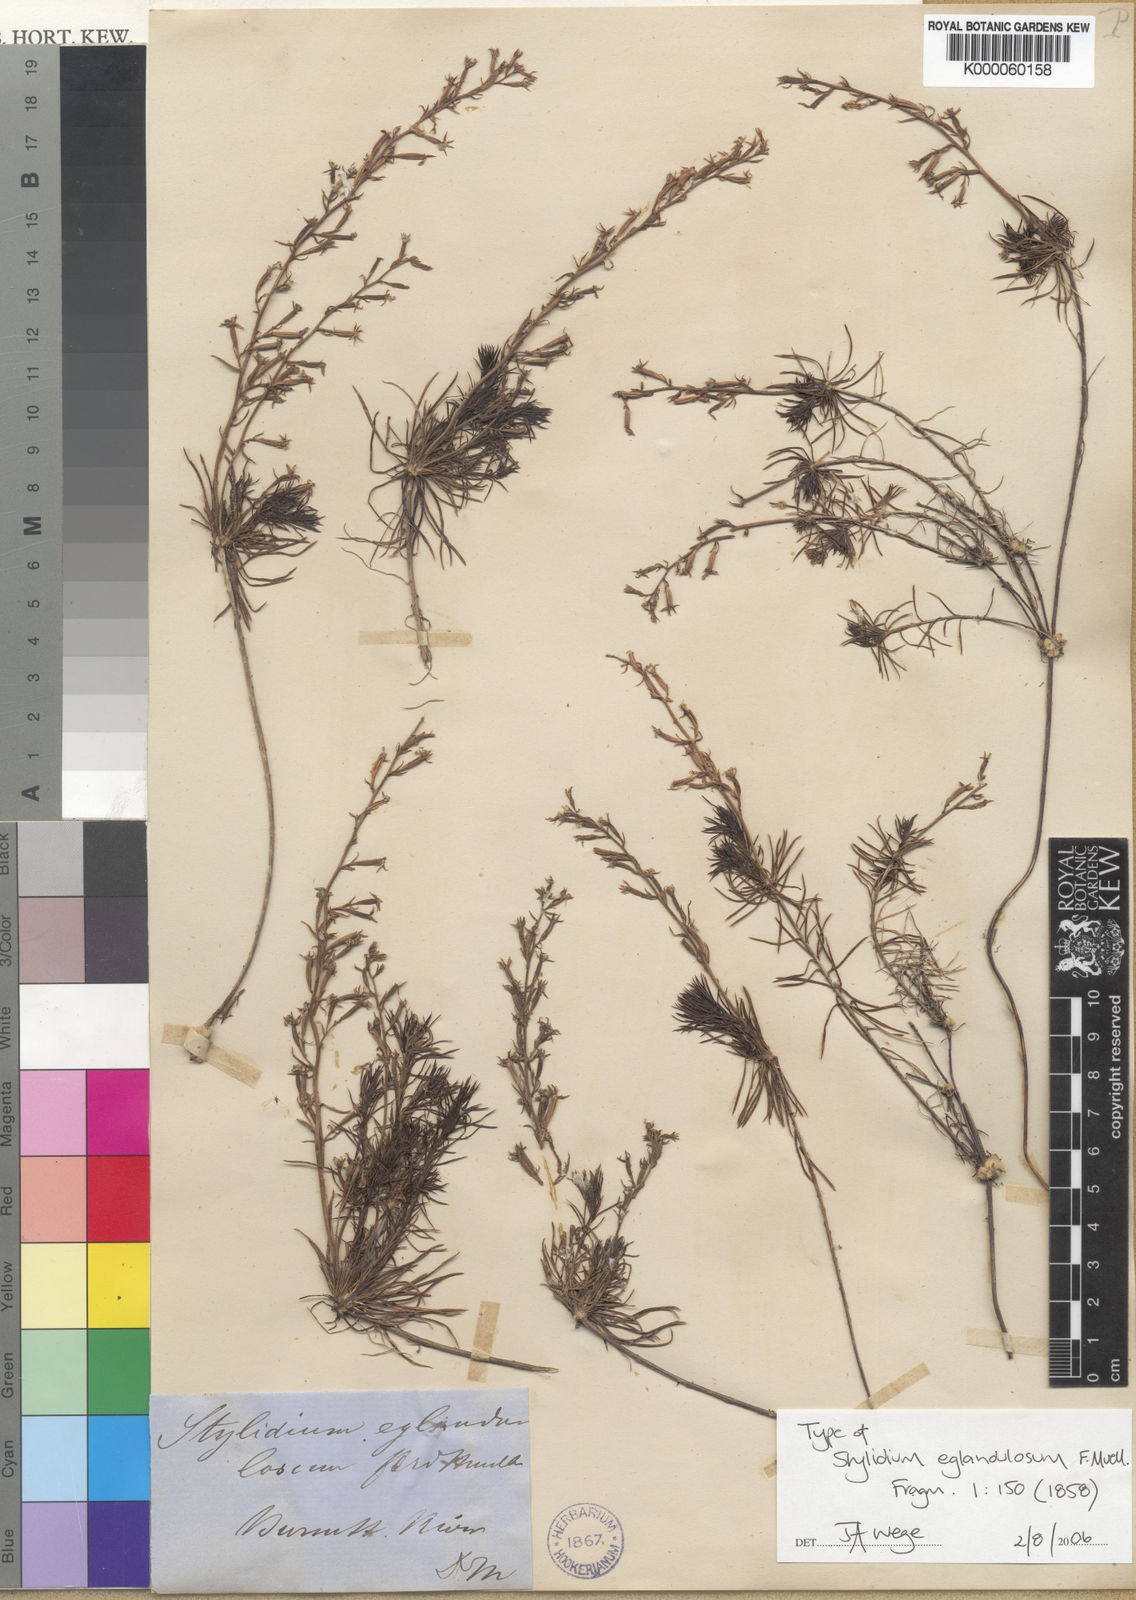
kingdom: Plantae
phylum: Tracheophyta
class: Magnoliopsida
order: Asterales
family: Stylidiaceae
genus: Stylidium
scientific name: Stylidium eglandulosum
